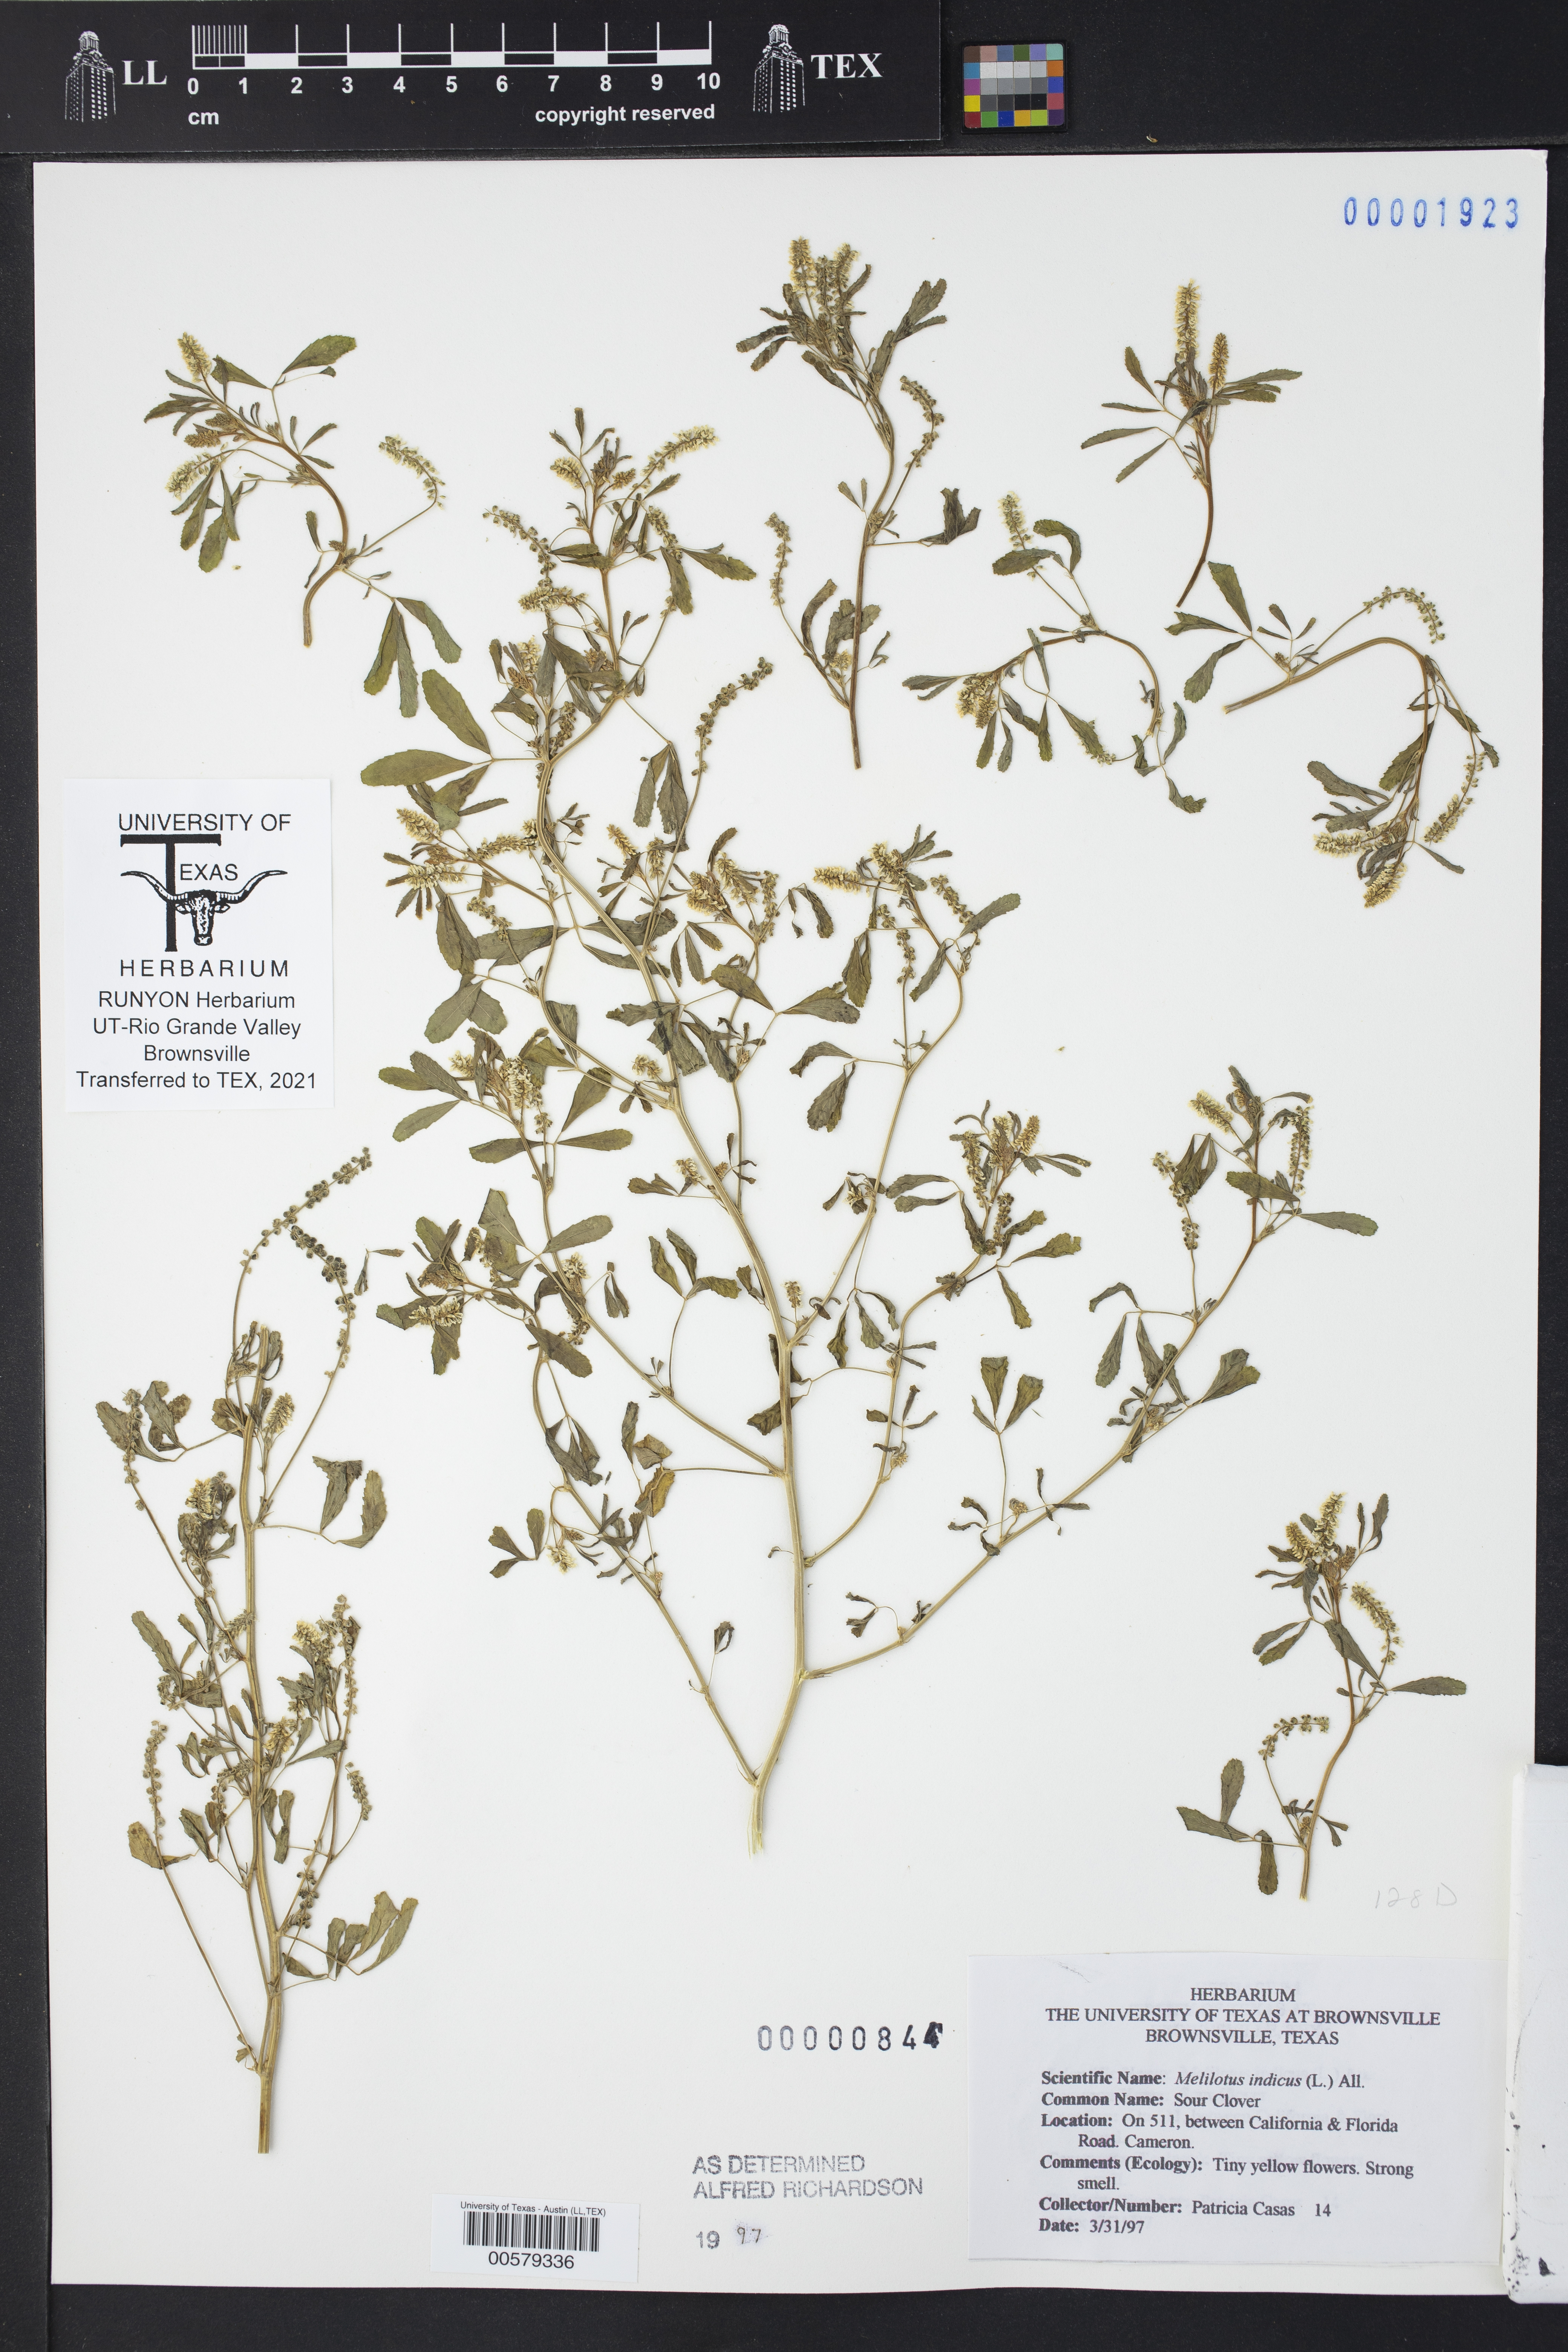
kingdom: Plantae
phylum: Tracheophyta
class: Magnoliopsida
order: Fabales
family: Fabaceae
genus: Melilotus
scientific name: Melilotus indicus
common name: Small melilot
